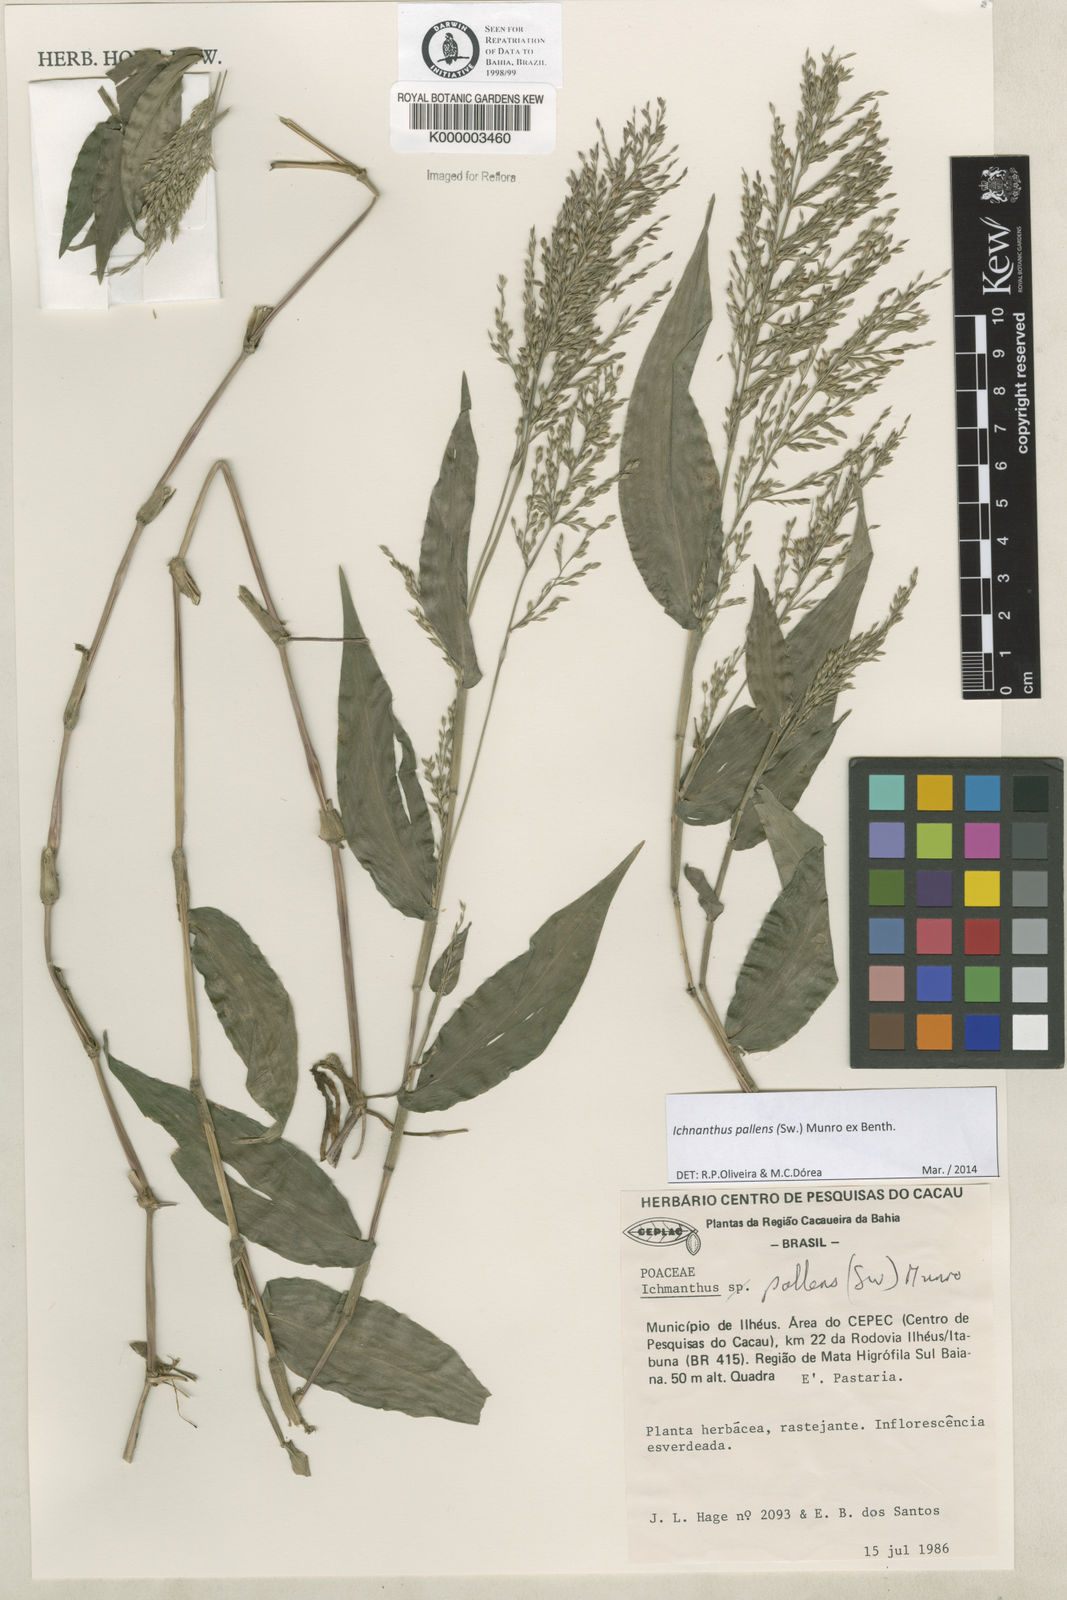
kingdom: Plantae
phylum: Tracheophyta
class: Liliopsida
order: Poales
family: Poaceae
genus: Ichnanthus
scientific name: Ichnanthus
